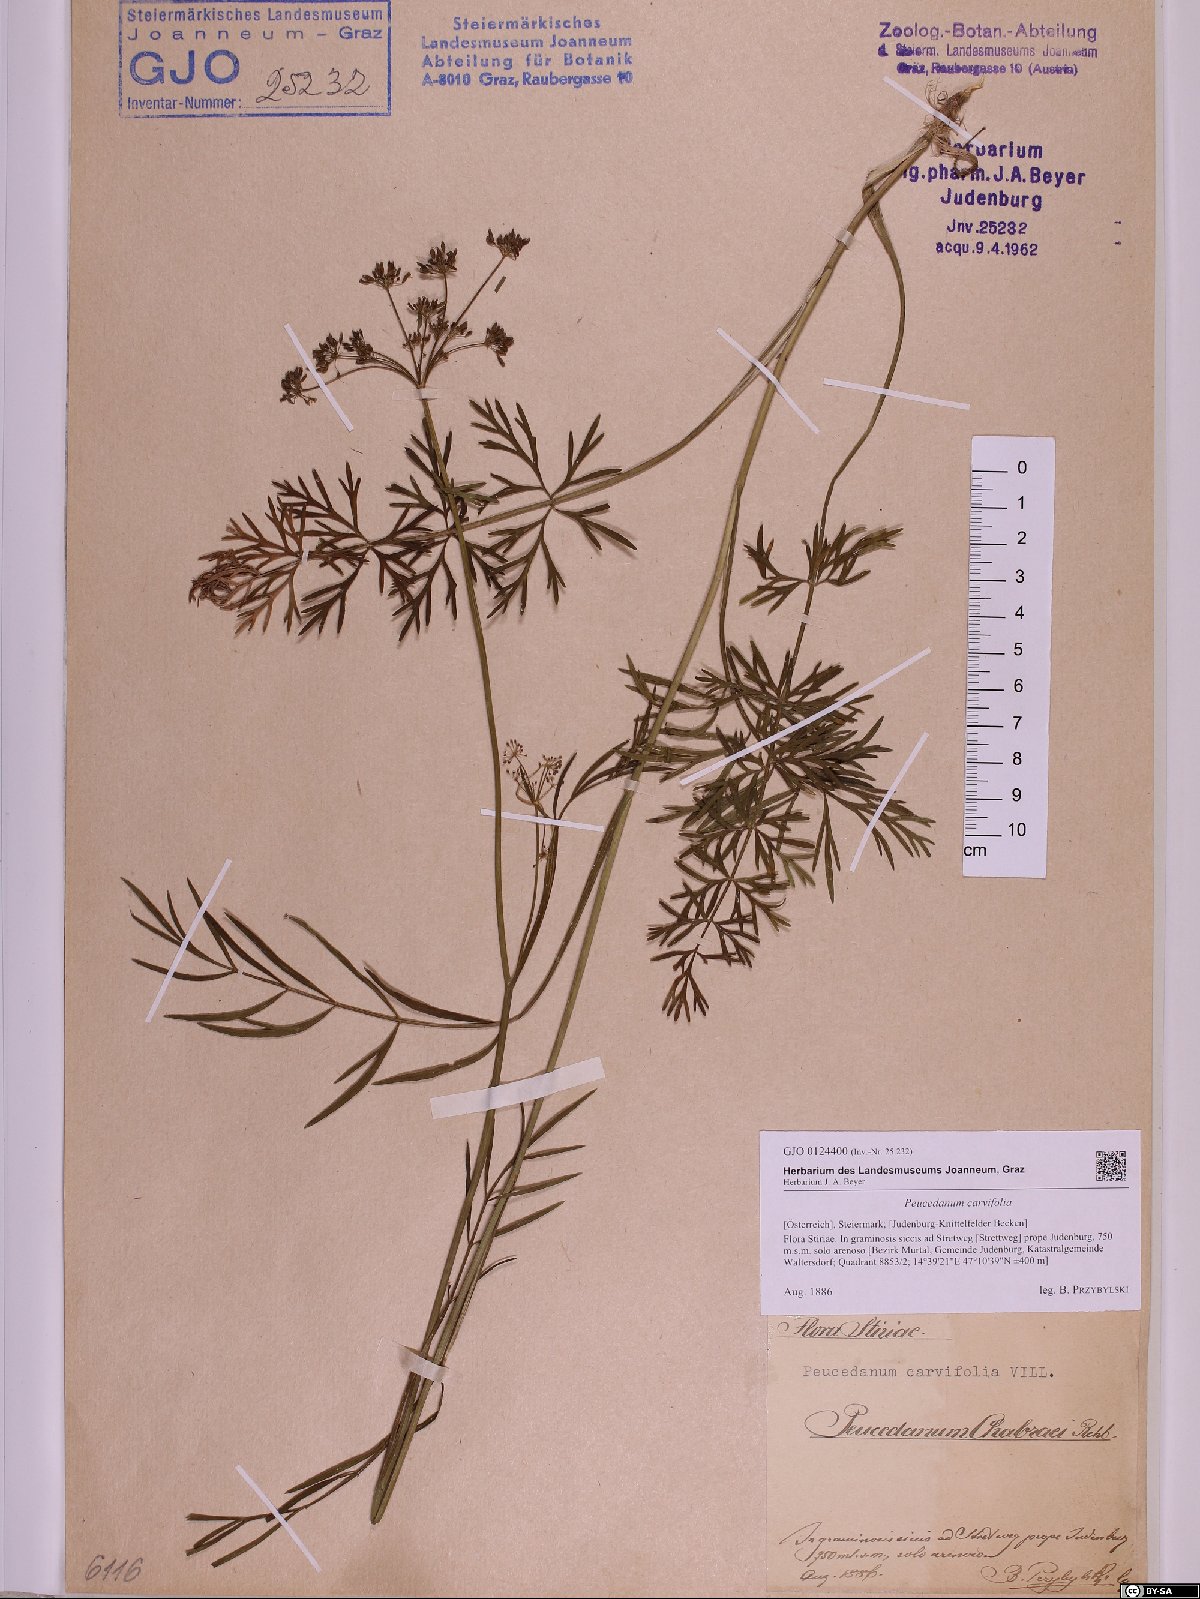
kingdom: Plantae
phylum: Tracheophyta
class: Magnoliopsida
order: Apiales
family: Apiaceae
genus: Dichoropetalum
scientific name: Dichoropetalum carvifolia
